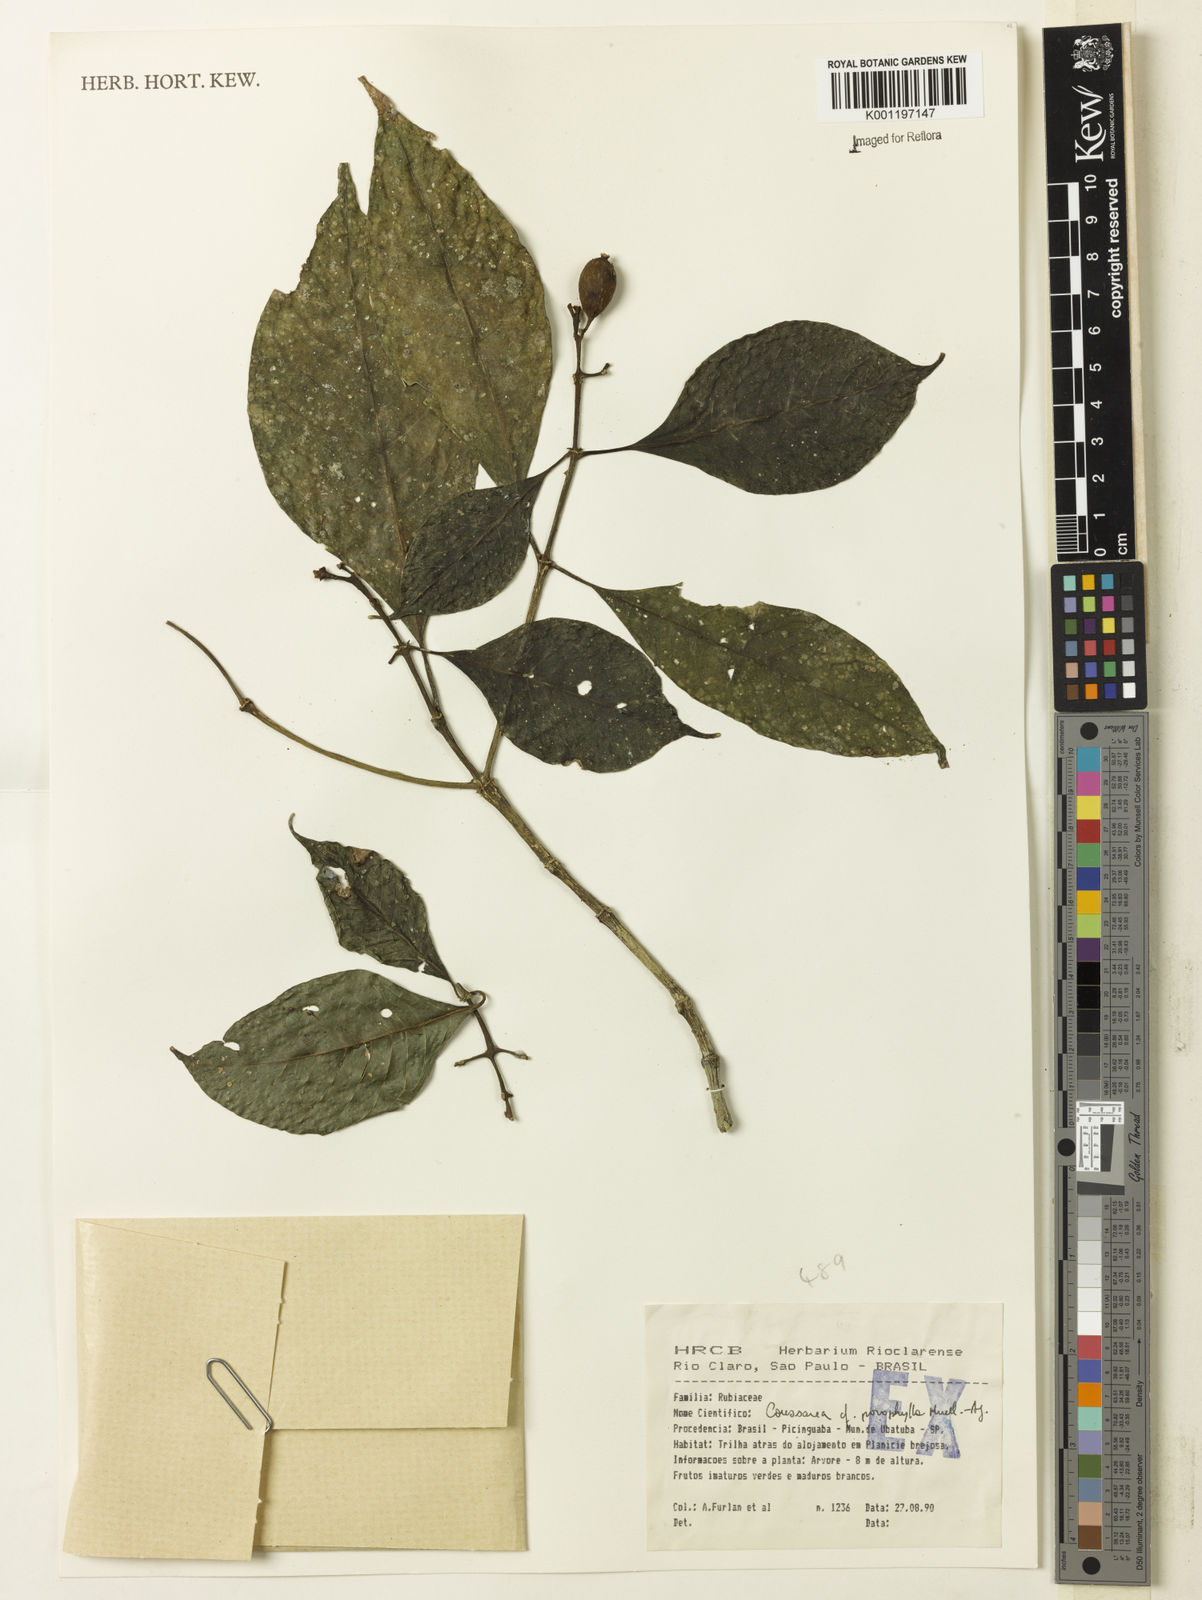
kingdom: Plantae
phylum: Tracheophyta
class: Magnoliopsida
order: Gentianales
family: Rubiaceae
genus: Coussarea
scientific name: Coussarea
